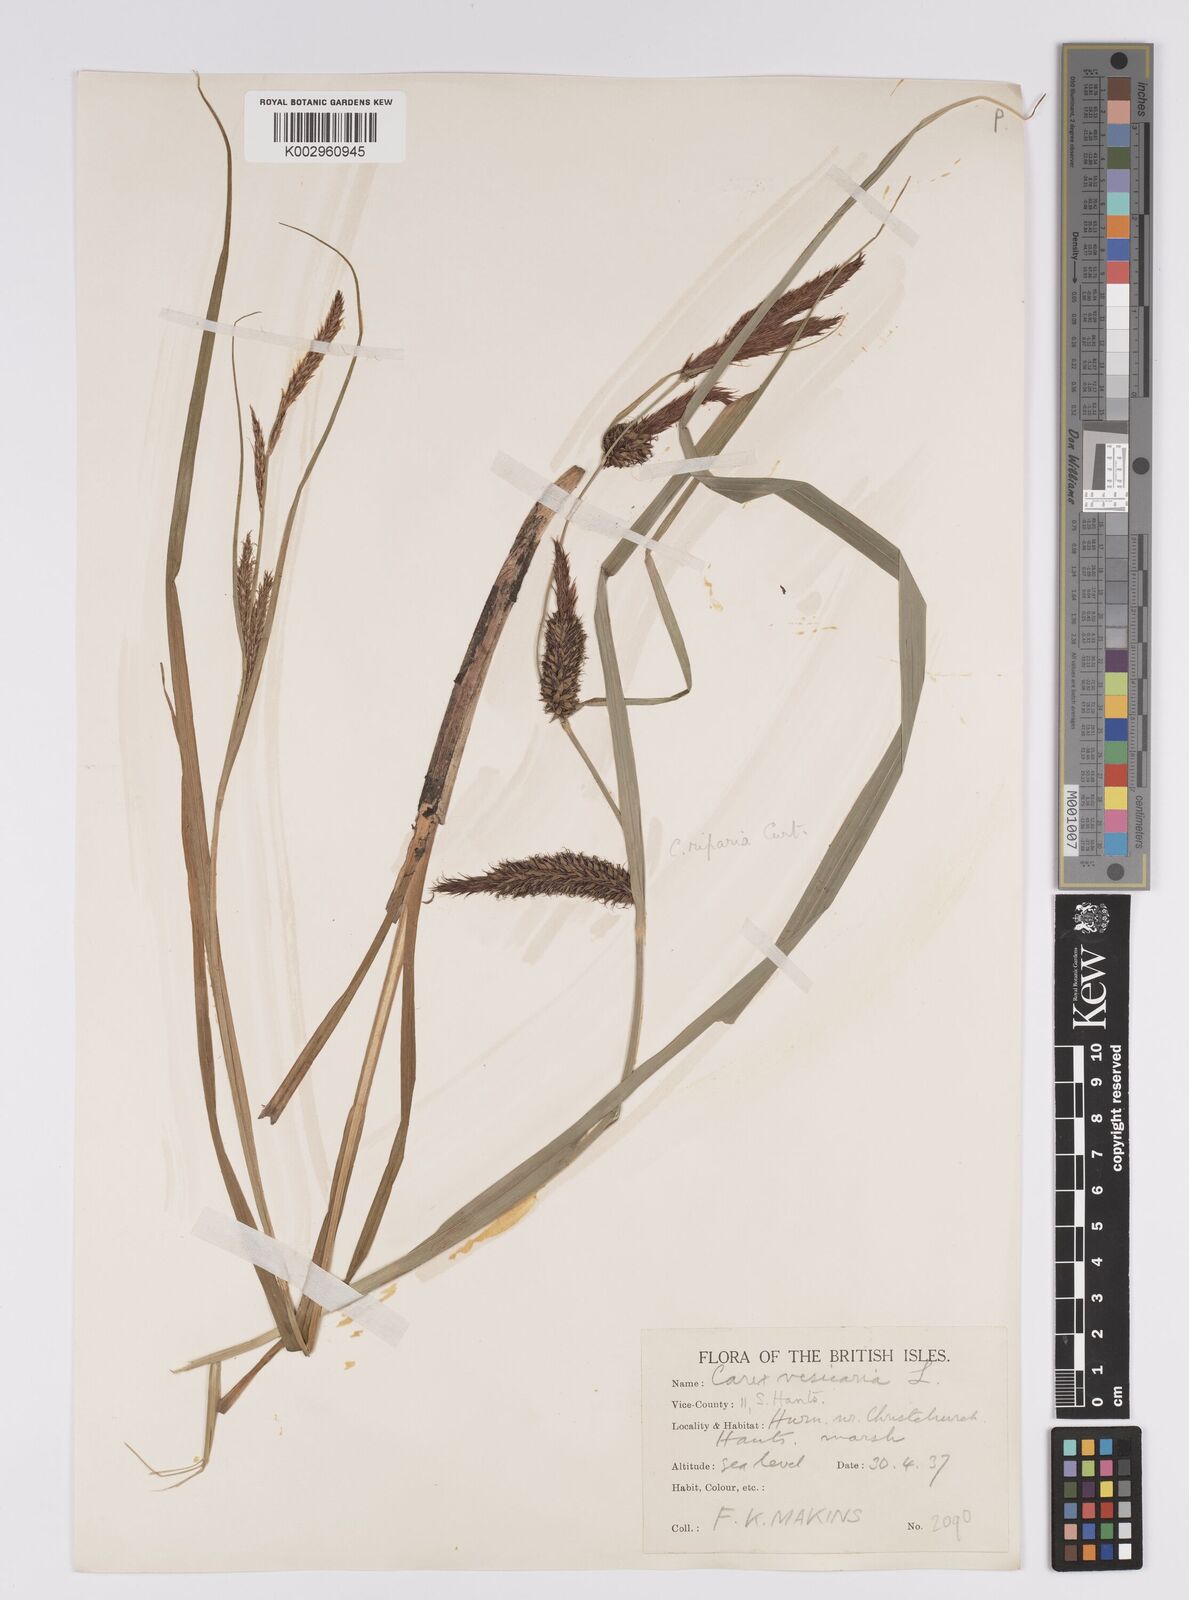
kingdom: Plantae
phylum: Tracheophyta
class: Liliopsida
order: Poales
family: Cyperaceae
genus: Carex
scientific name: Carex riparia
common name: Greater pond-sedge
